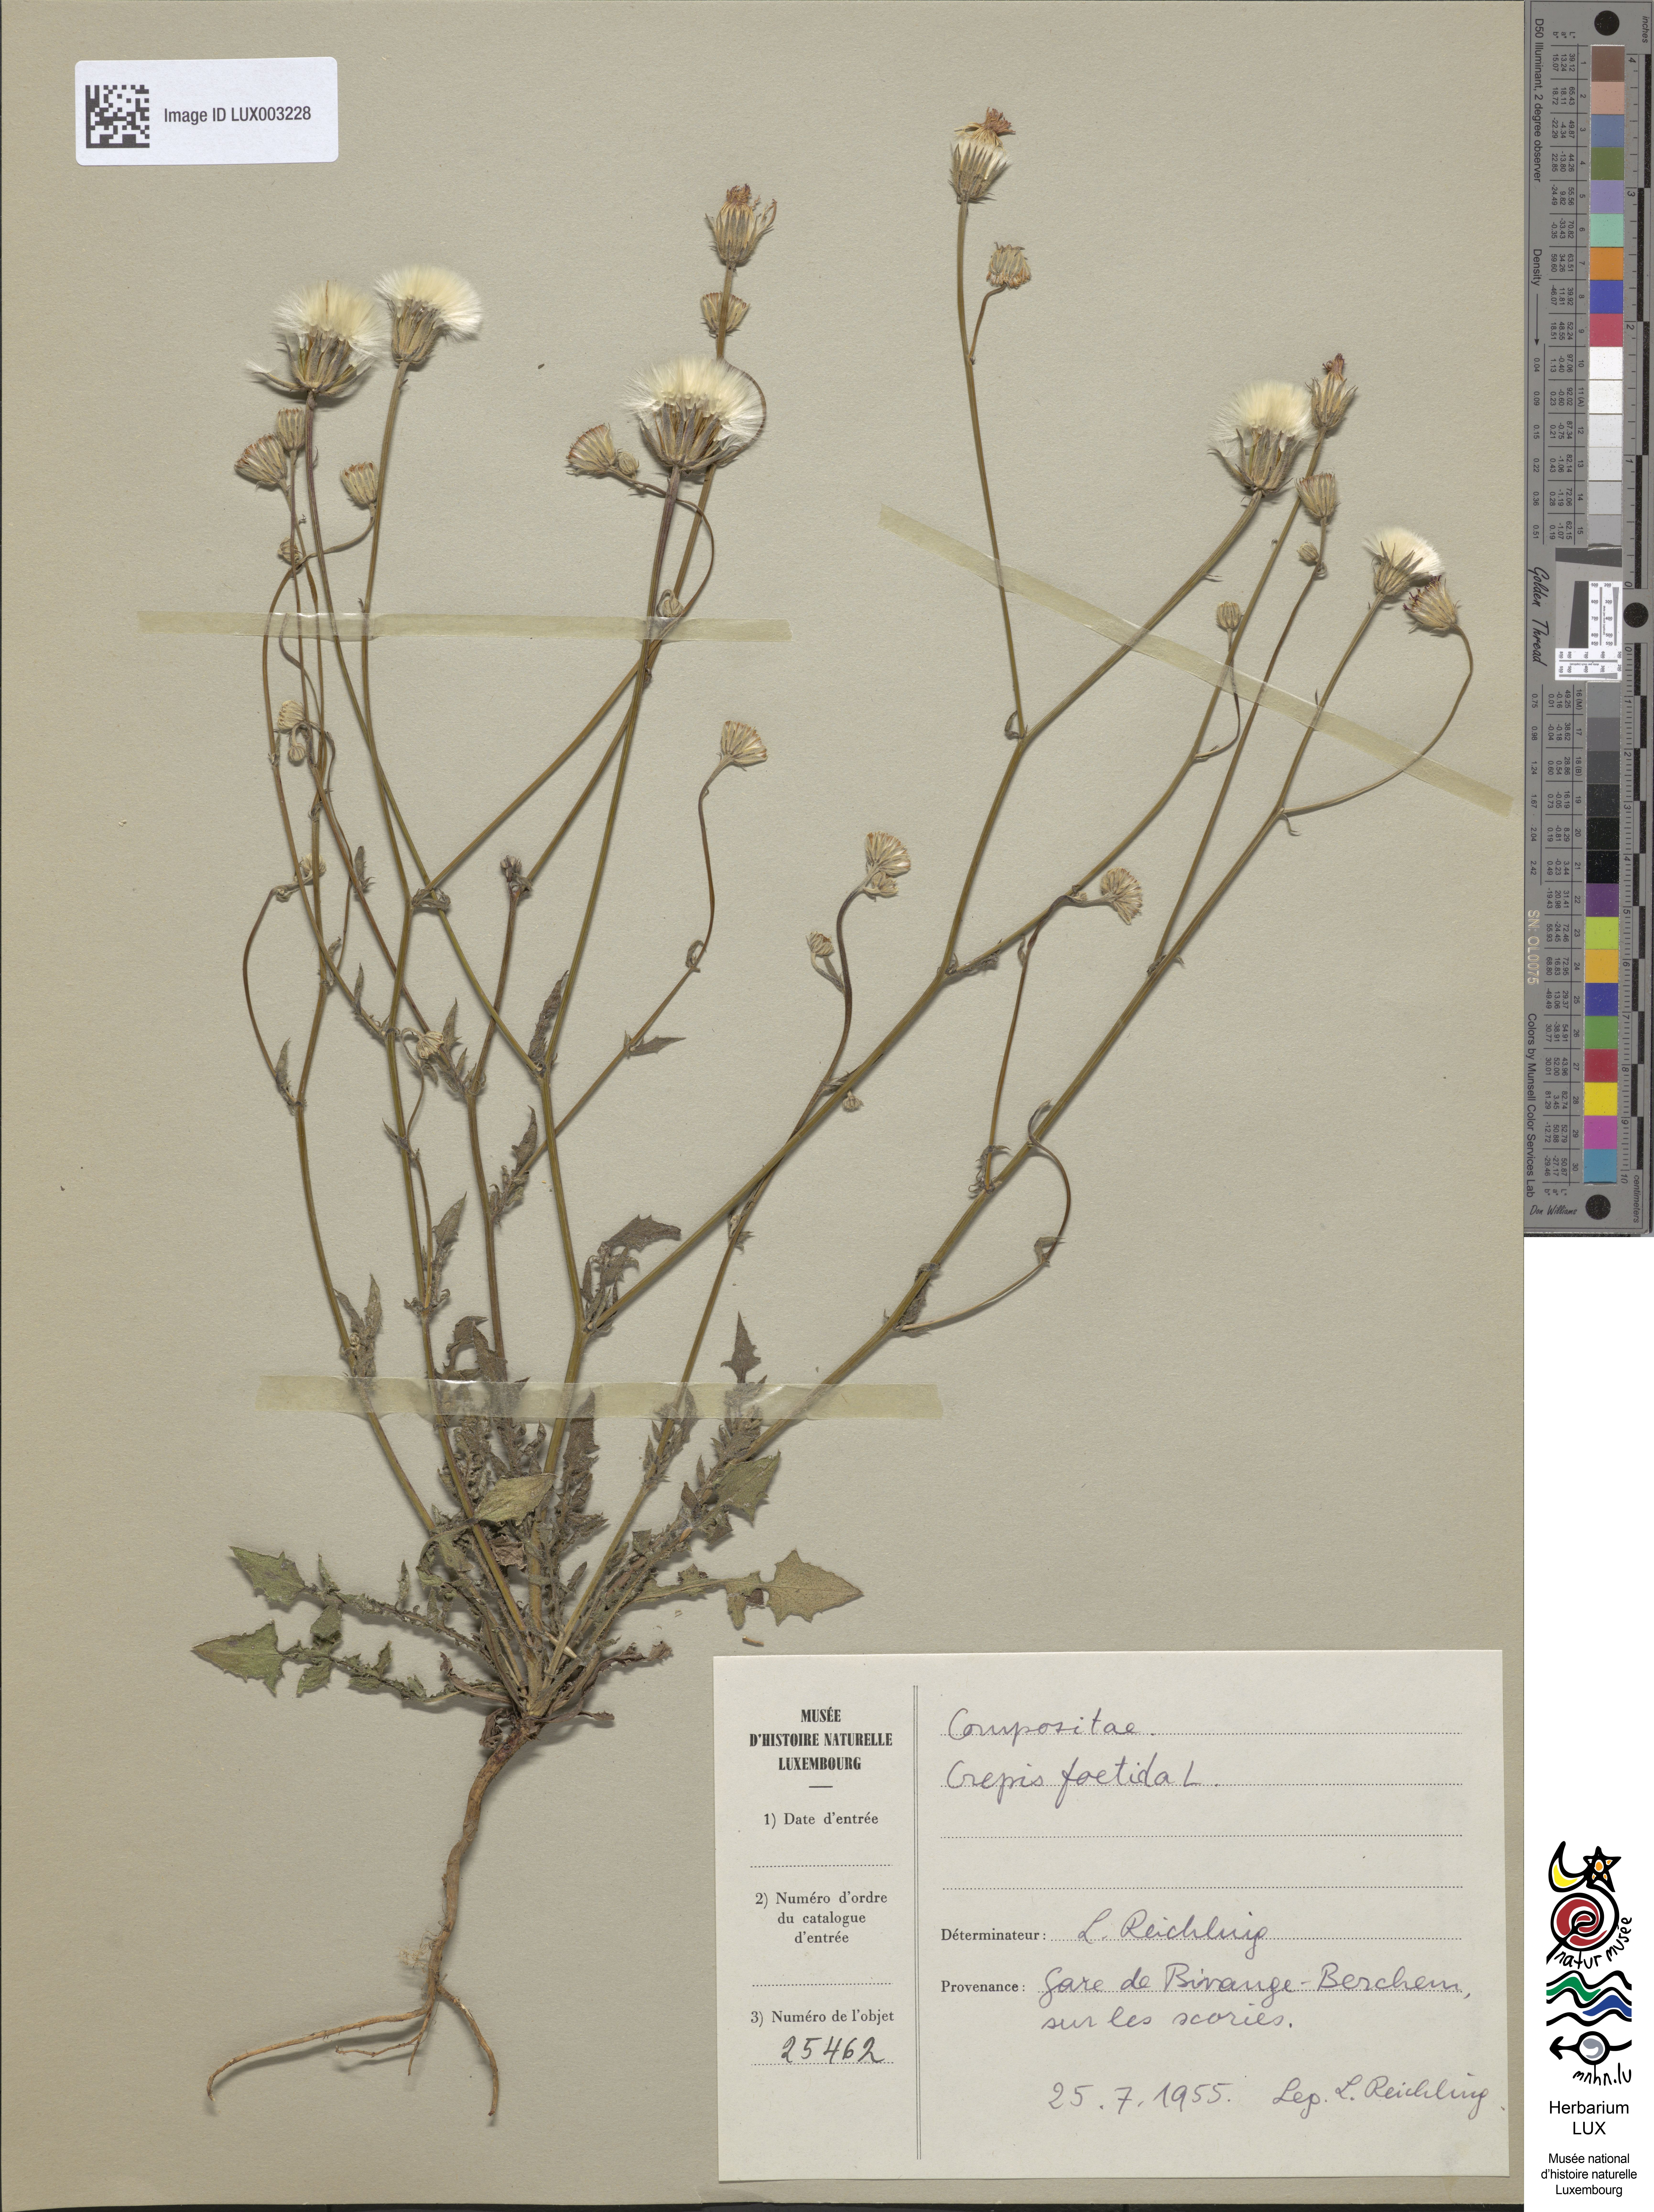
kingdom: Plantae
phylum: Tracheophyta
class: Magnoliopsida
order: Asterales
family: Asteraceae
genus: Crepis
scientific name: Crepis foetida
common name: Stinking hawk's-beard
